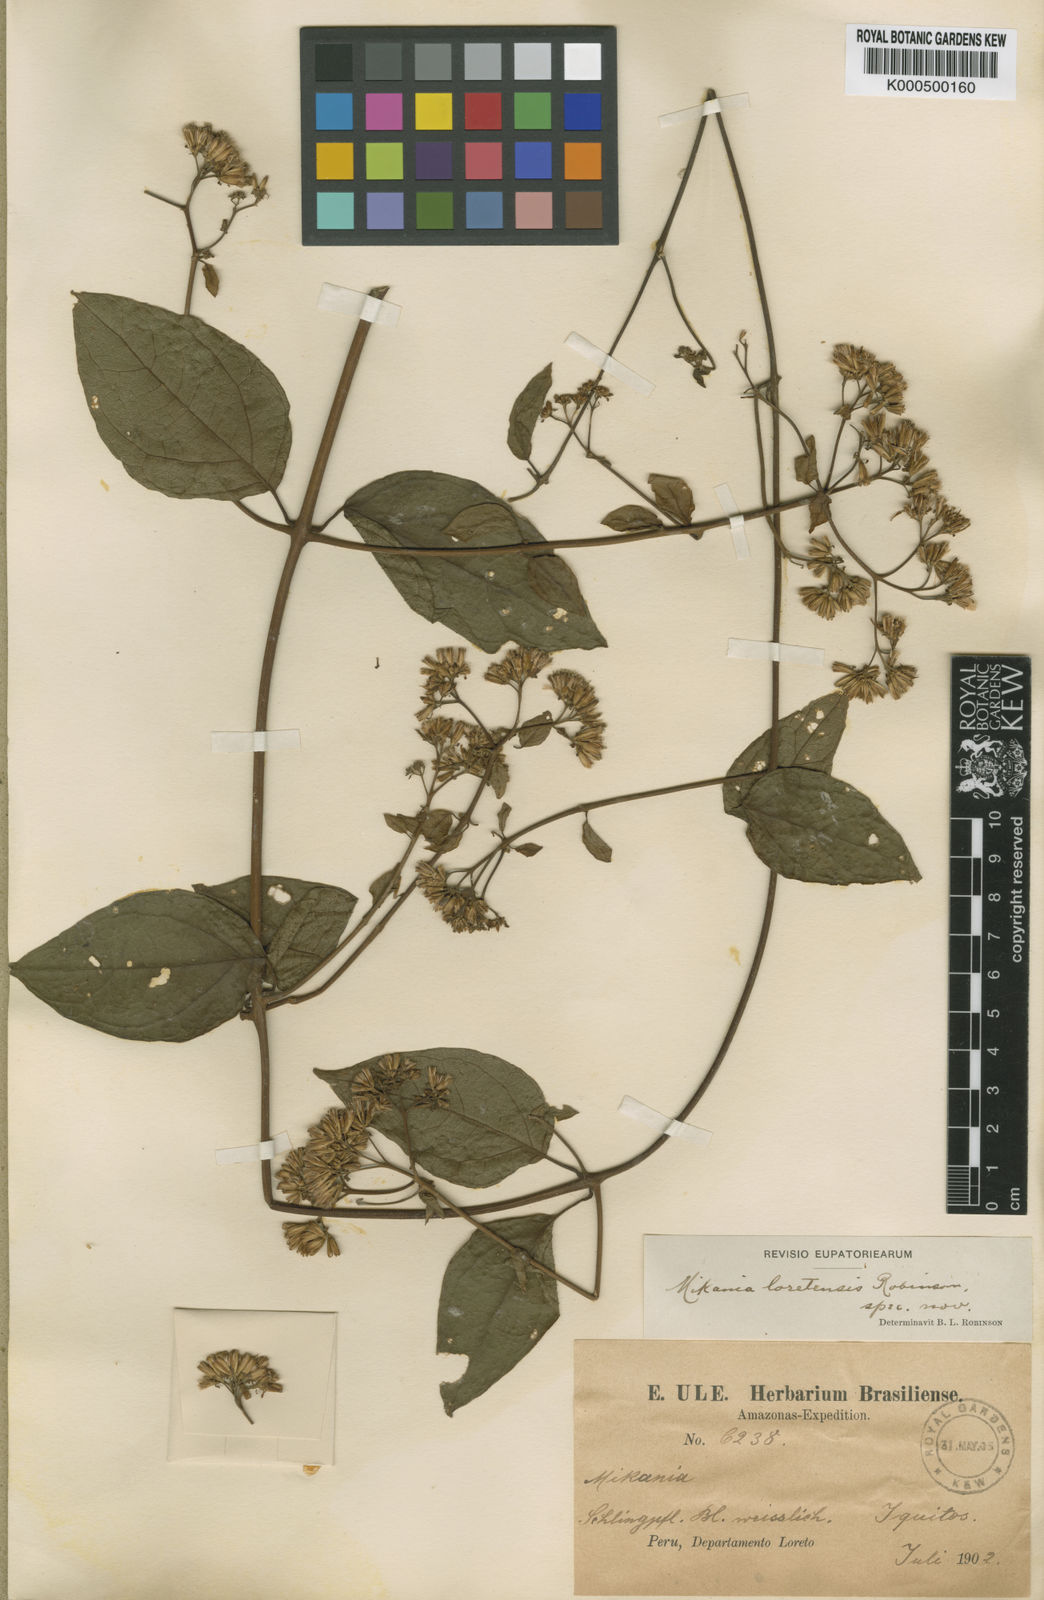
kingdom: Plantae
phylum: Tracheophyta
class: Magnoliopsida
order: Asterales
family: Asteraceae
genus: Mikania
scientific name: Mikania parviflora
